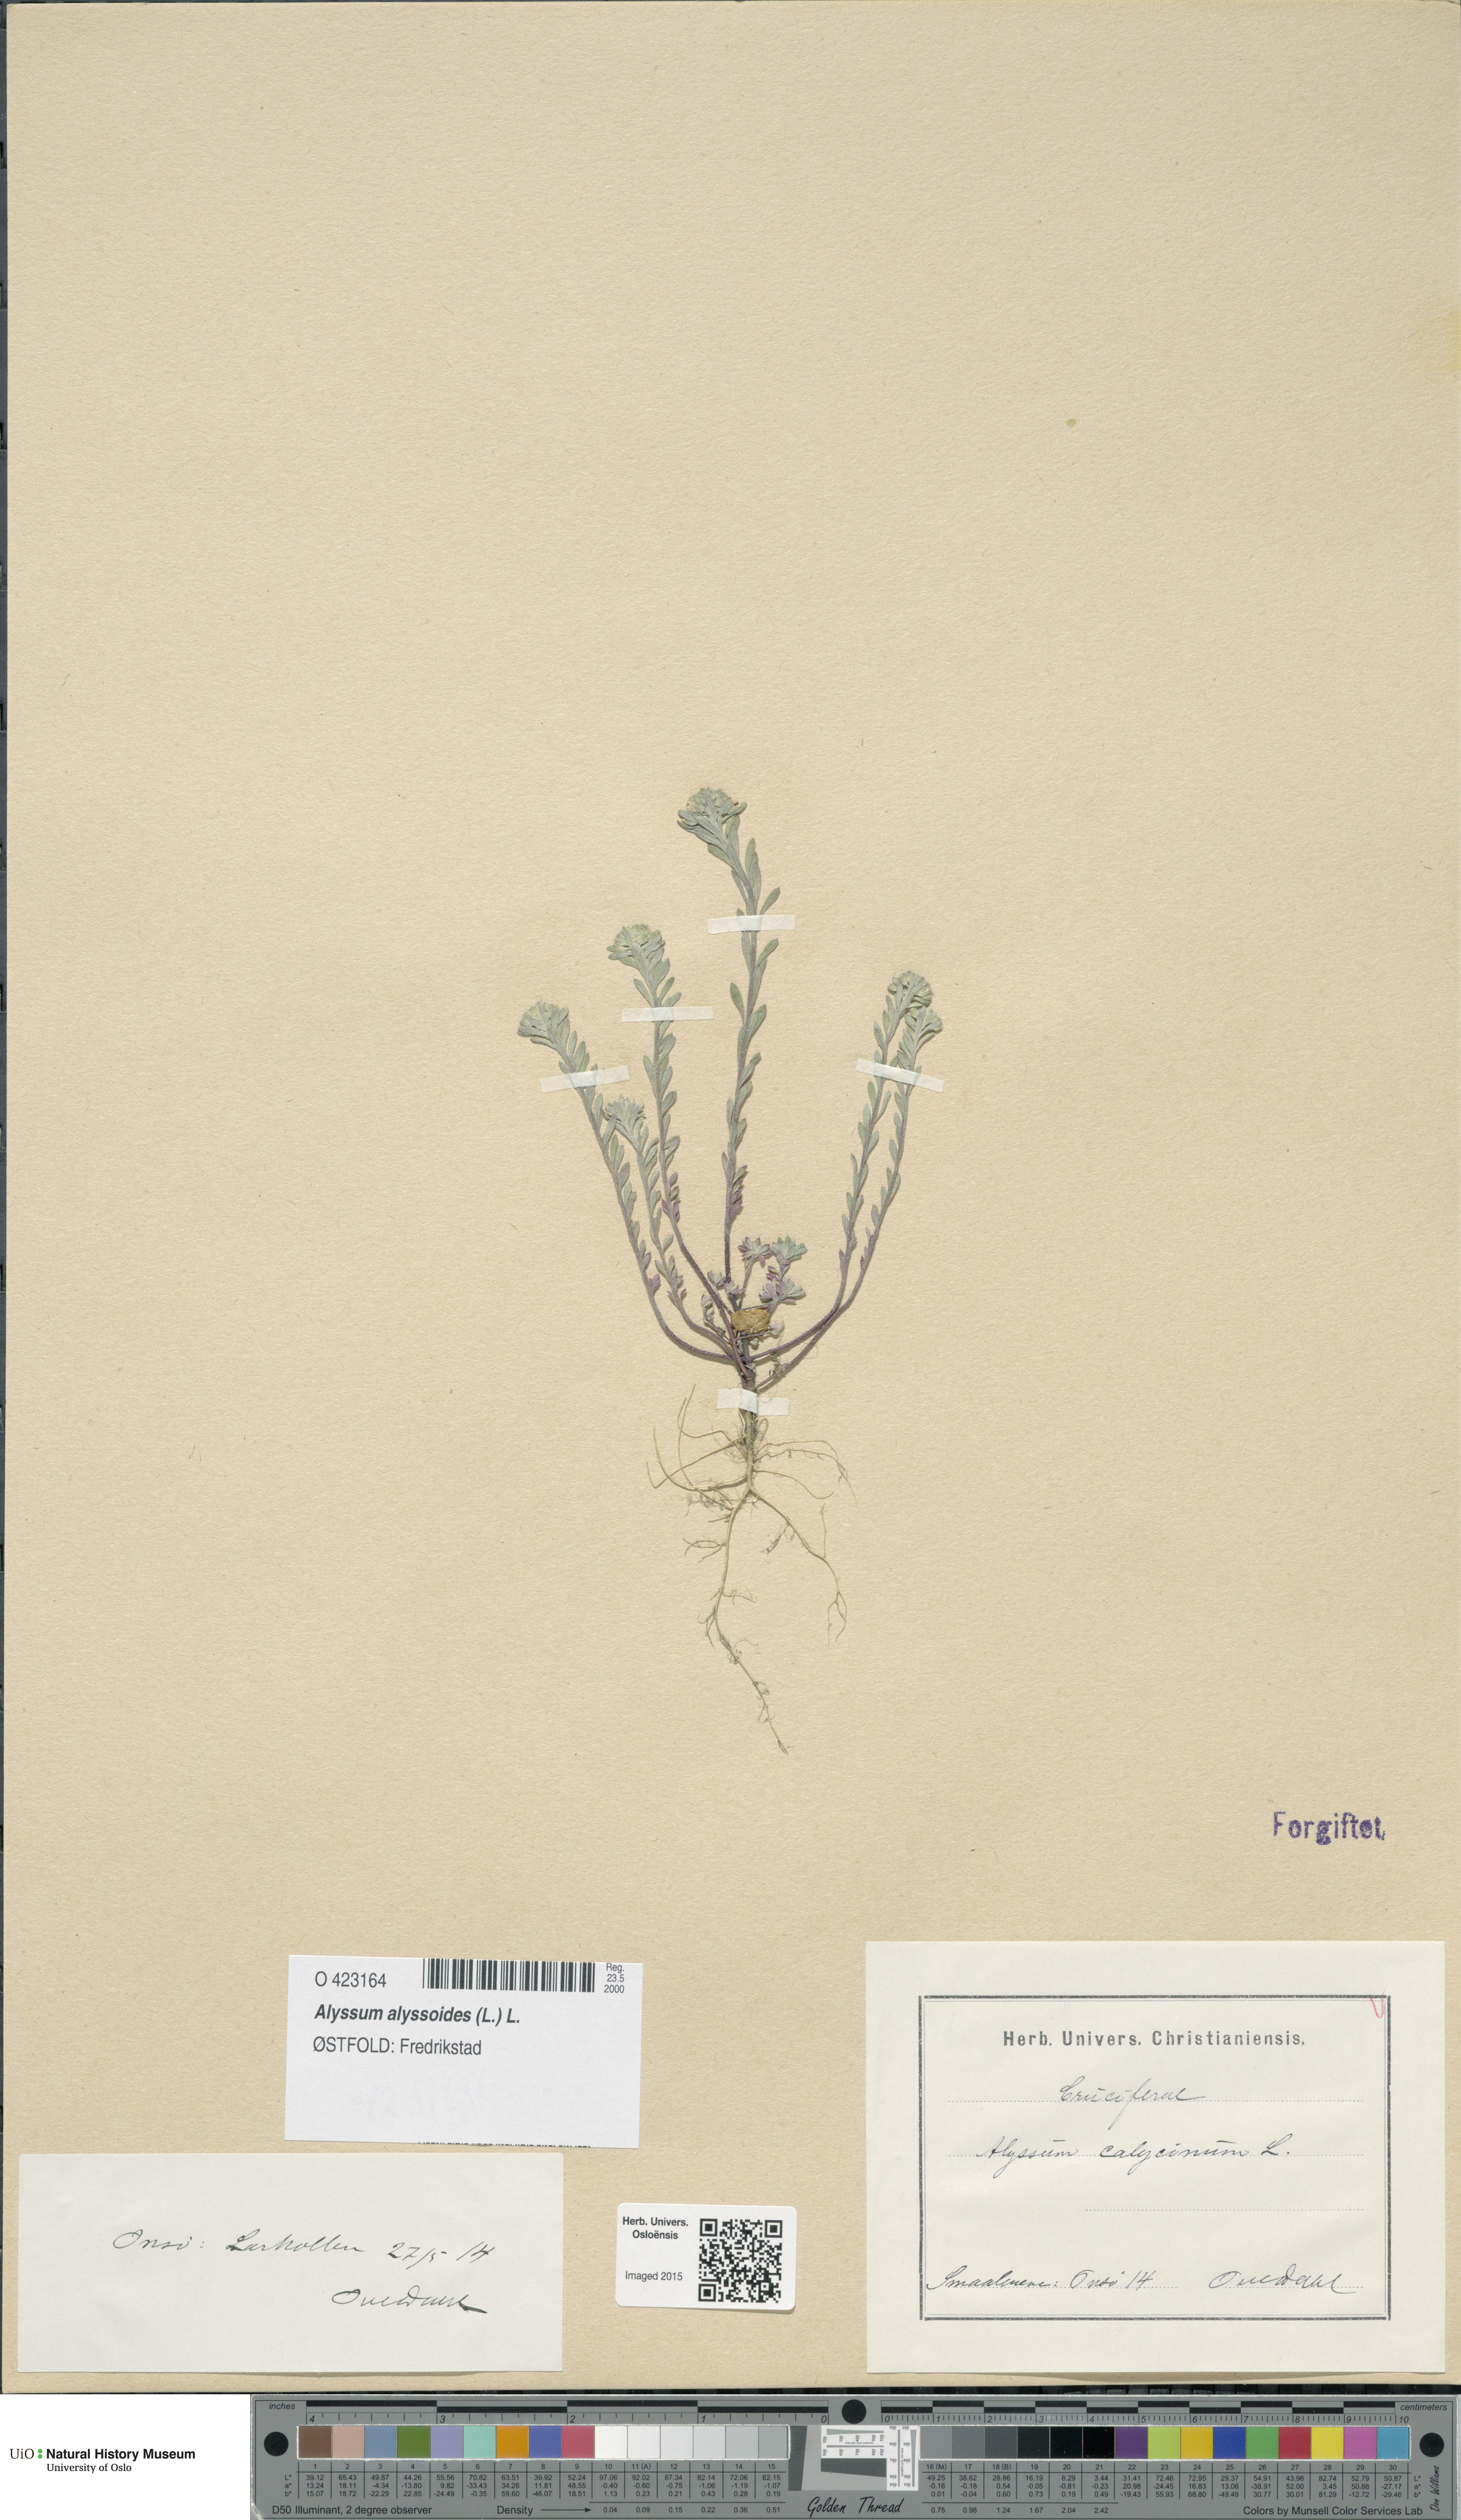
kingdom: Plantae
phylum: Tracheophyta
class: Magnoliopsida
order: Brassicales
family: Brassicaceae
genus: Alyssum
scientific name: Alyssum alyssoides
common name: Small alison
